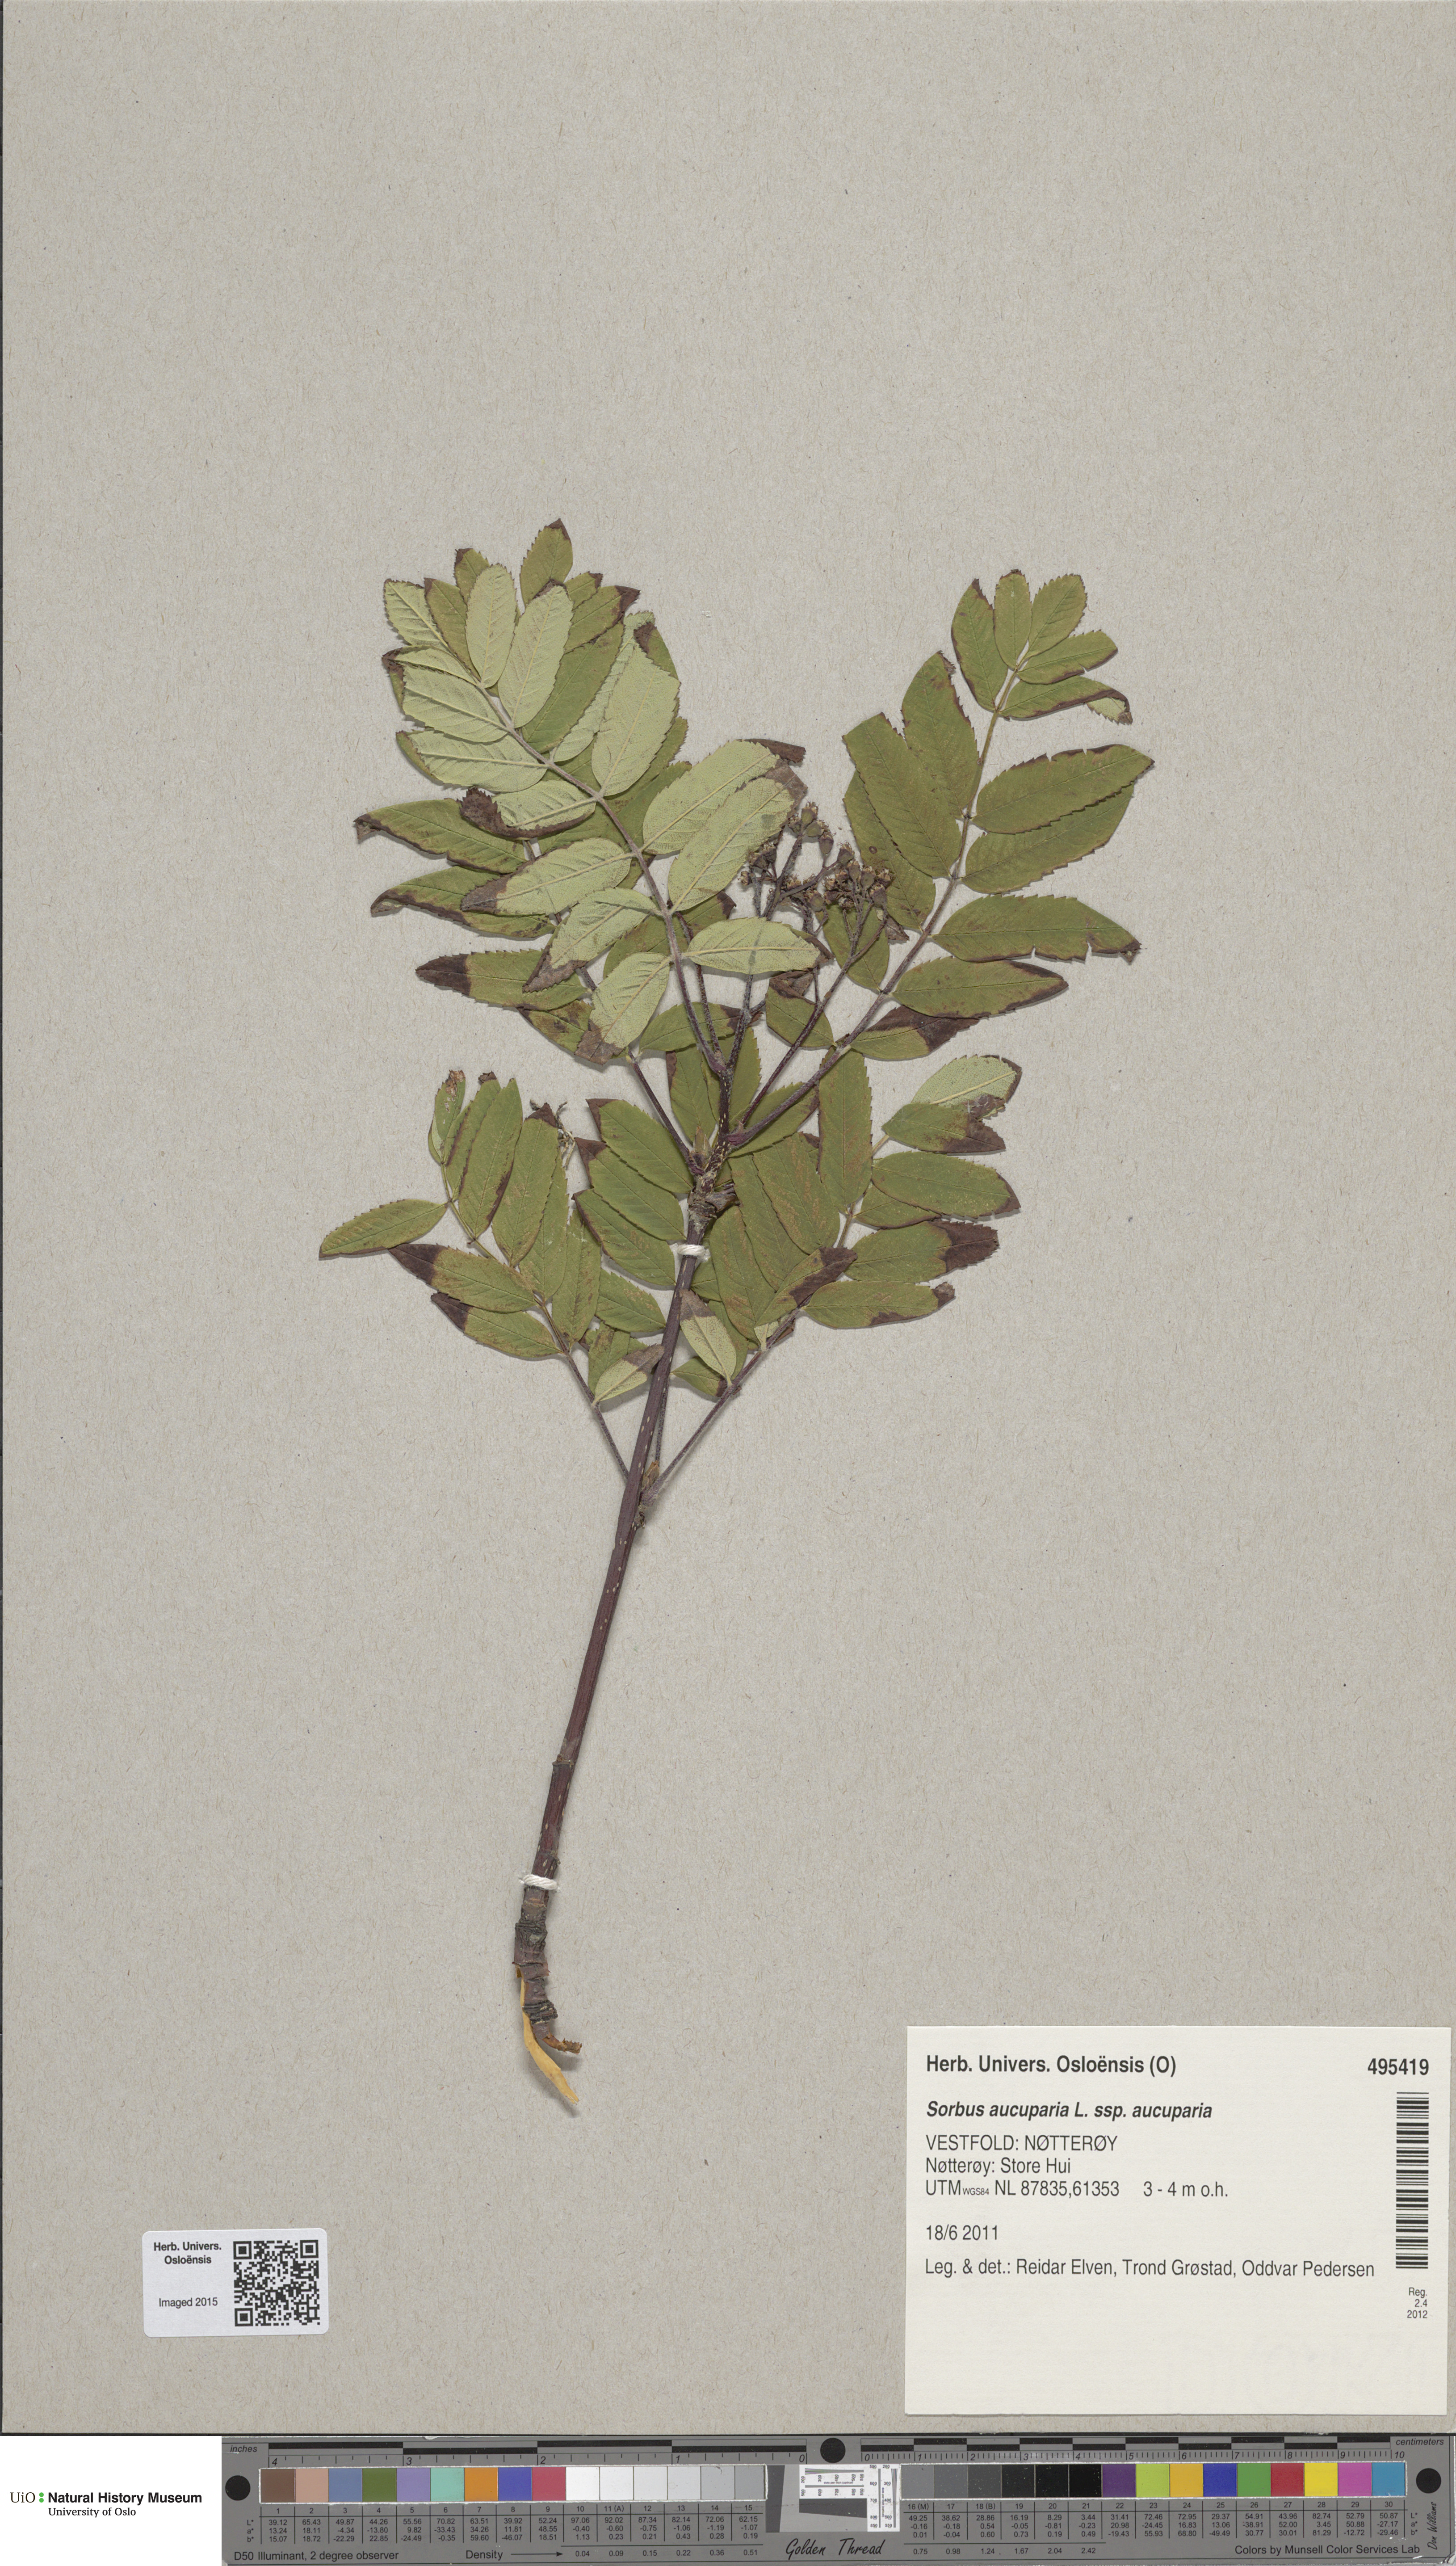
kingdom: Plantae
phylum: Tracheophyta
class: Magnoliopsida
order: Rosales
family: Rosaceae
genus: Sorbus
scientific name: Sorbus aucuparia
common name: Rowan
